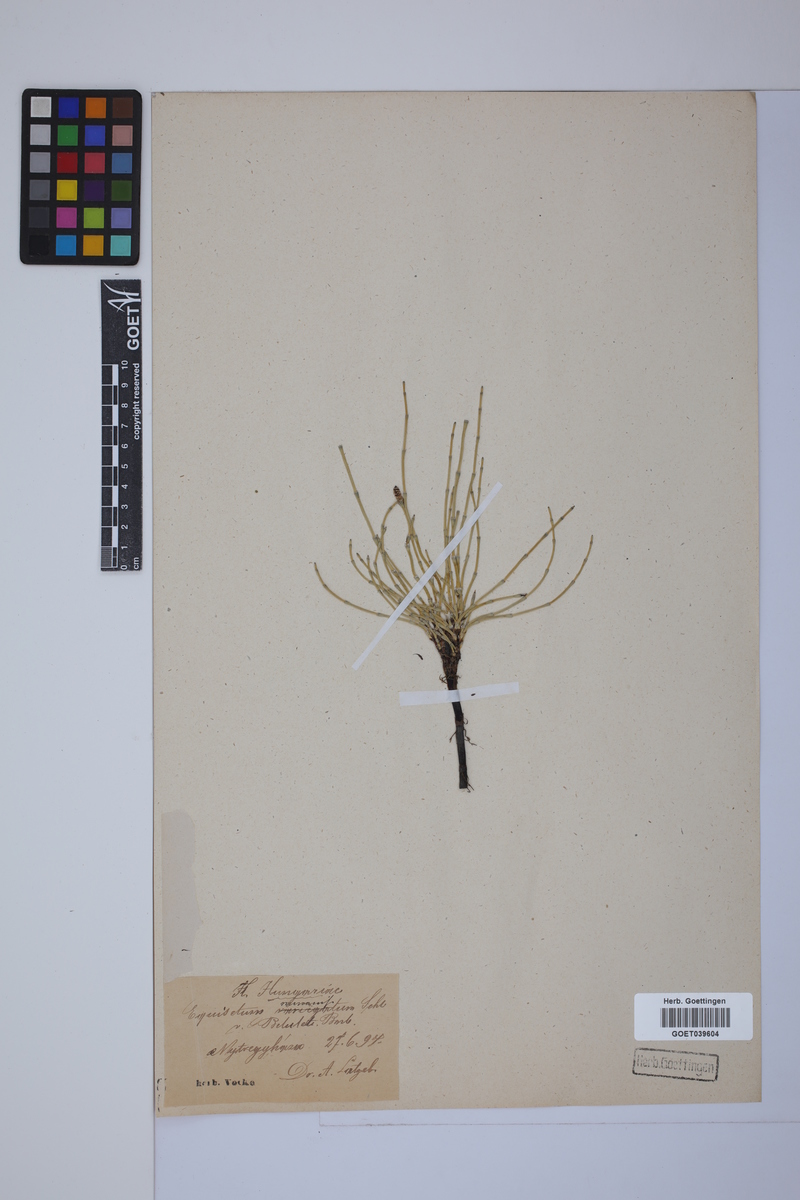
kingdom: Plantae
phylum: Tracheophyta
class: Polypodiopsida
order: Equisetales
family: Equisetaceae
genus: Equisetum
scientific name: Equisetum variegatum
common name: Variegated horsetail
